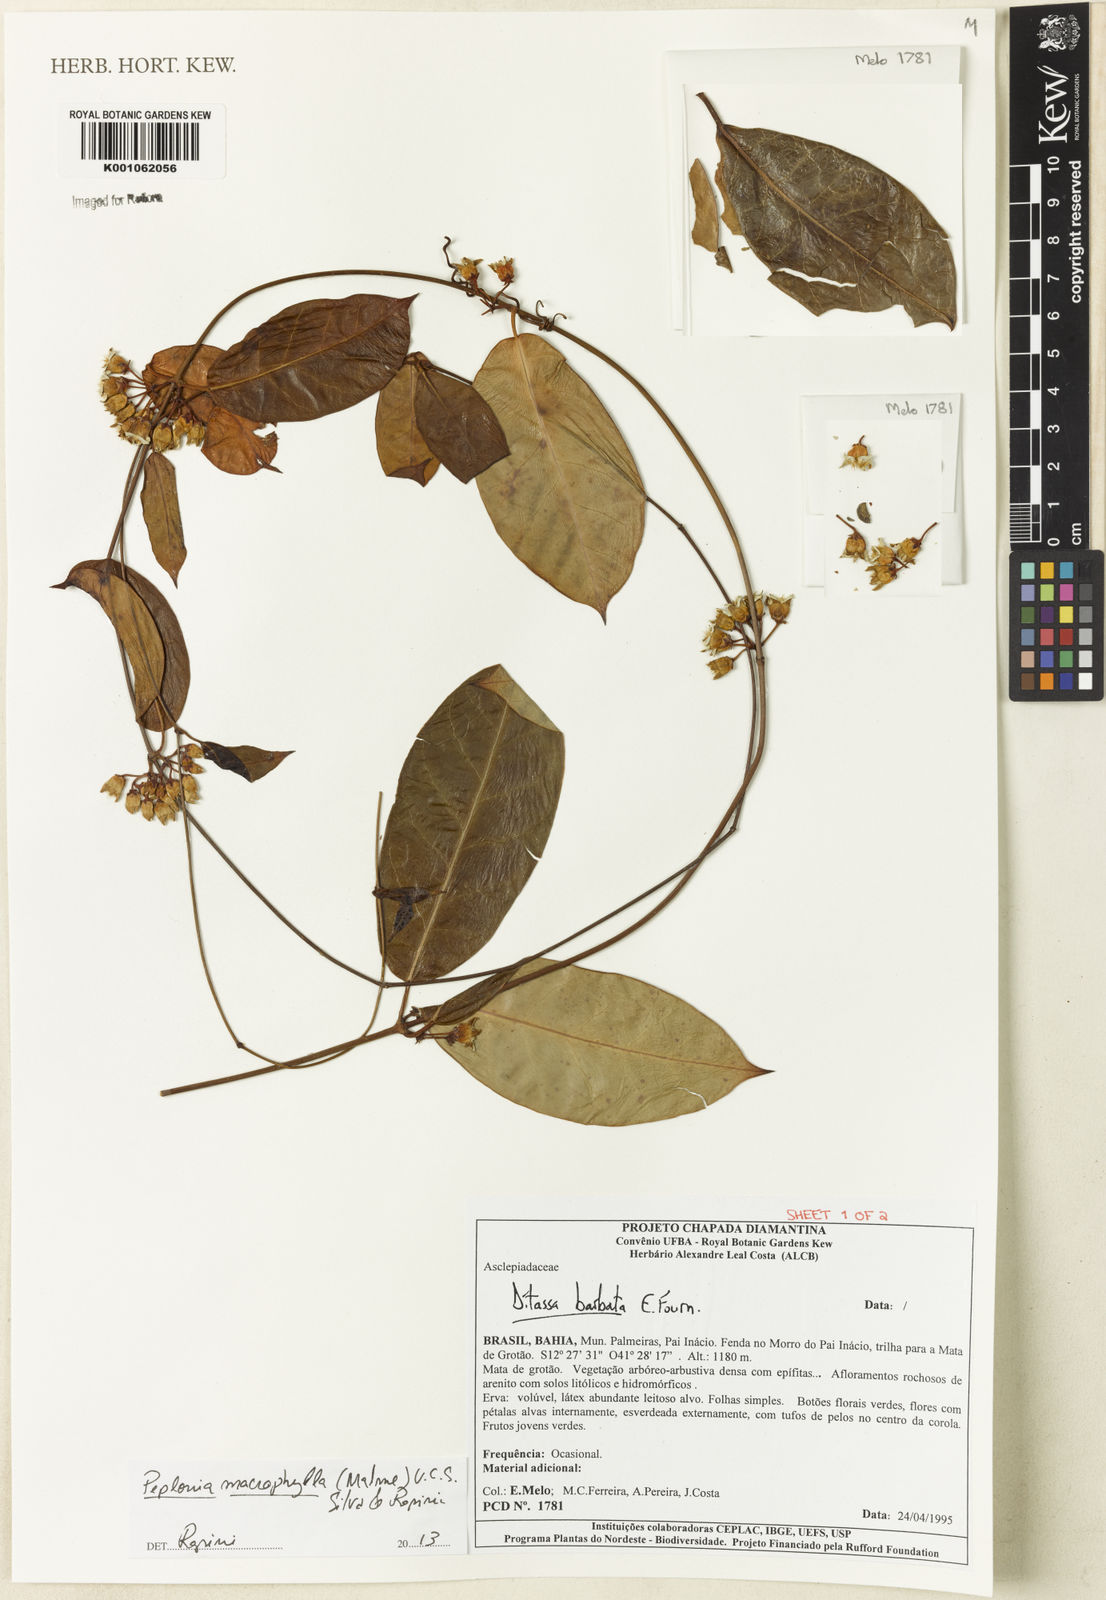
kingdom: Plantae
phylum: Tracheophyta
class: Magnoliopsida
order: Gentianales
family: Apocynaceae
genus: Peplonia
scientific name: Peplonia macrophylla
